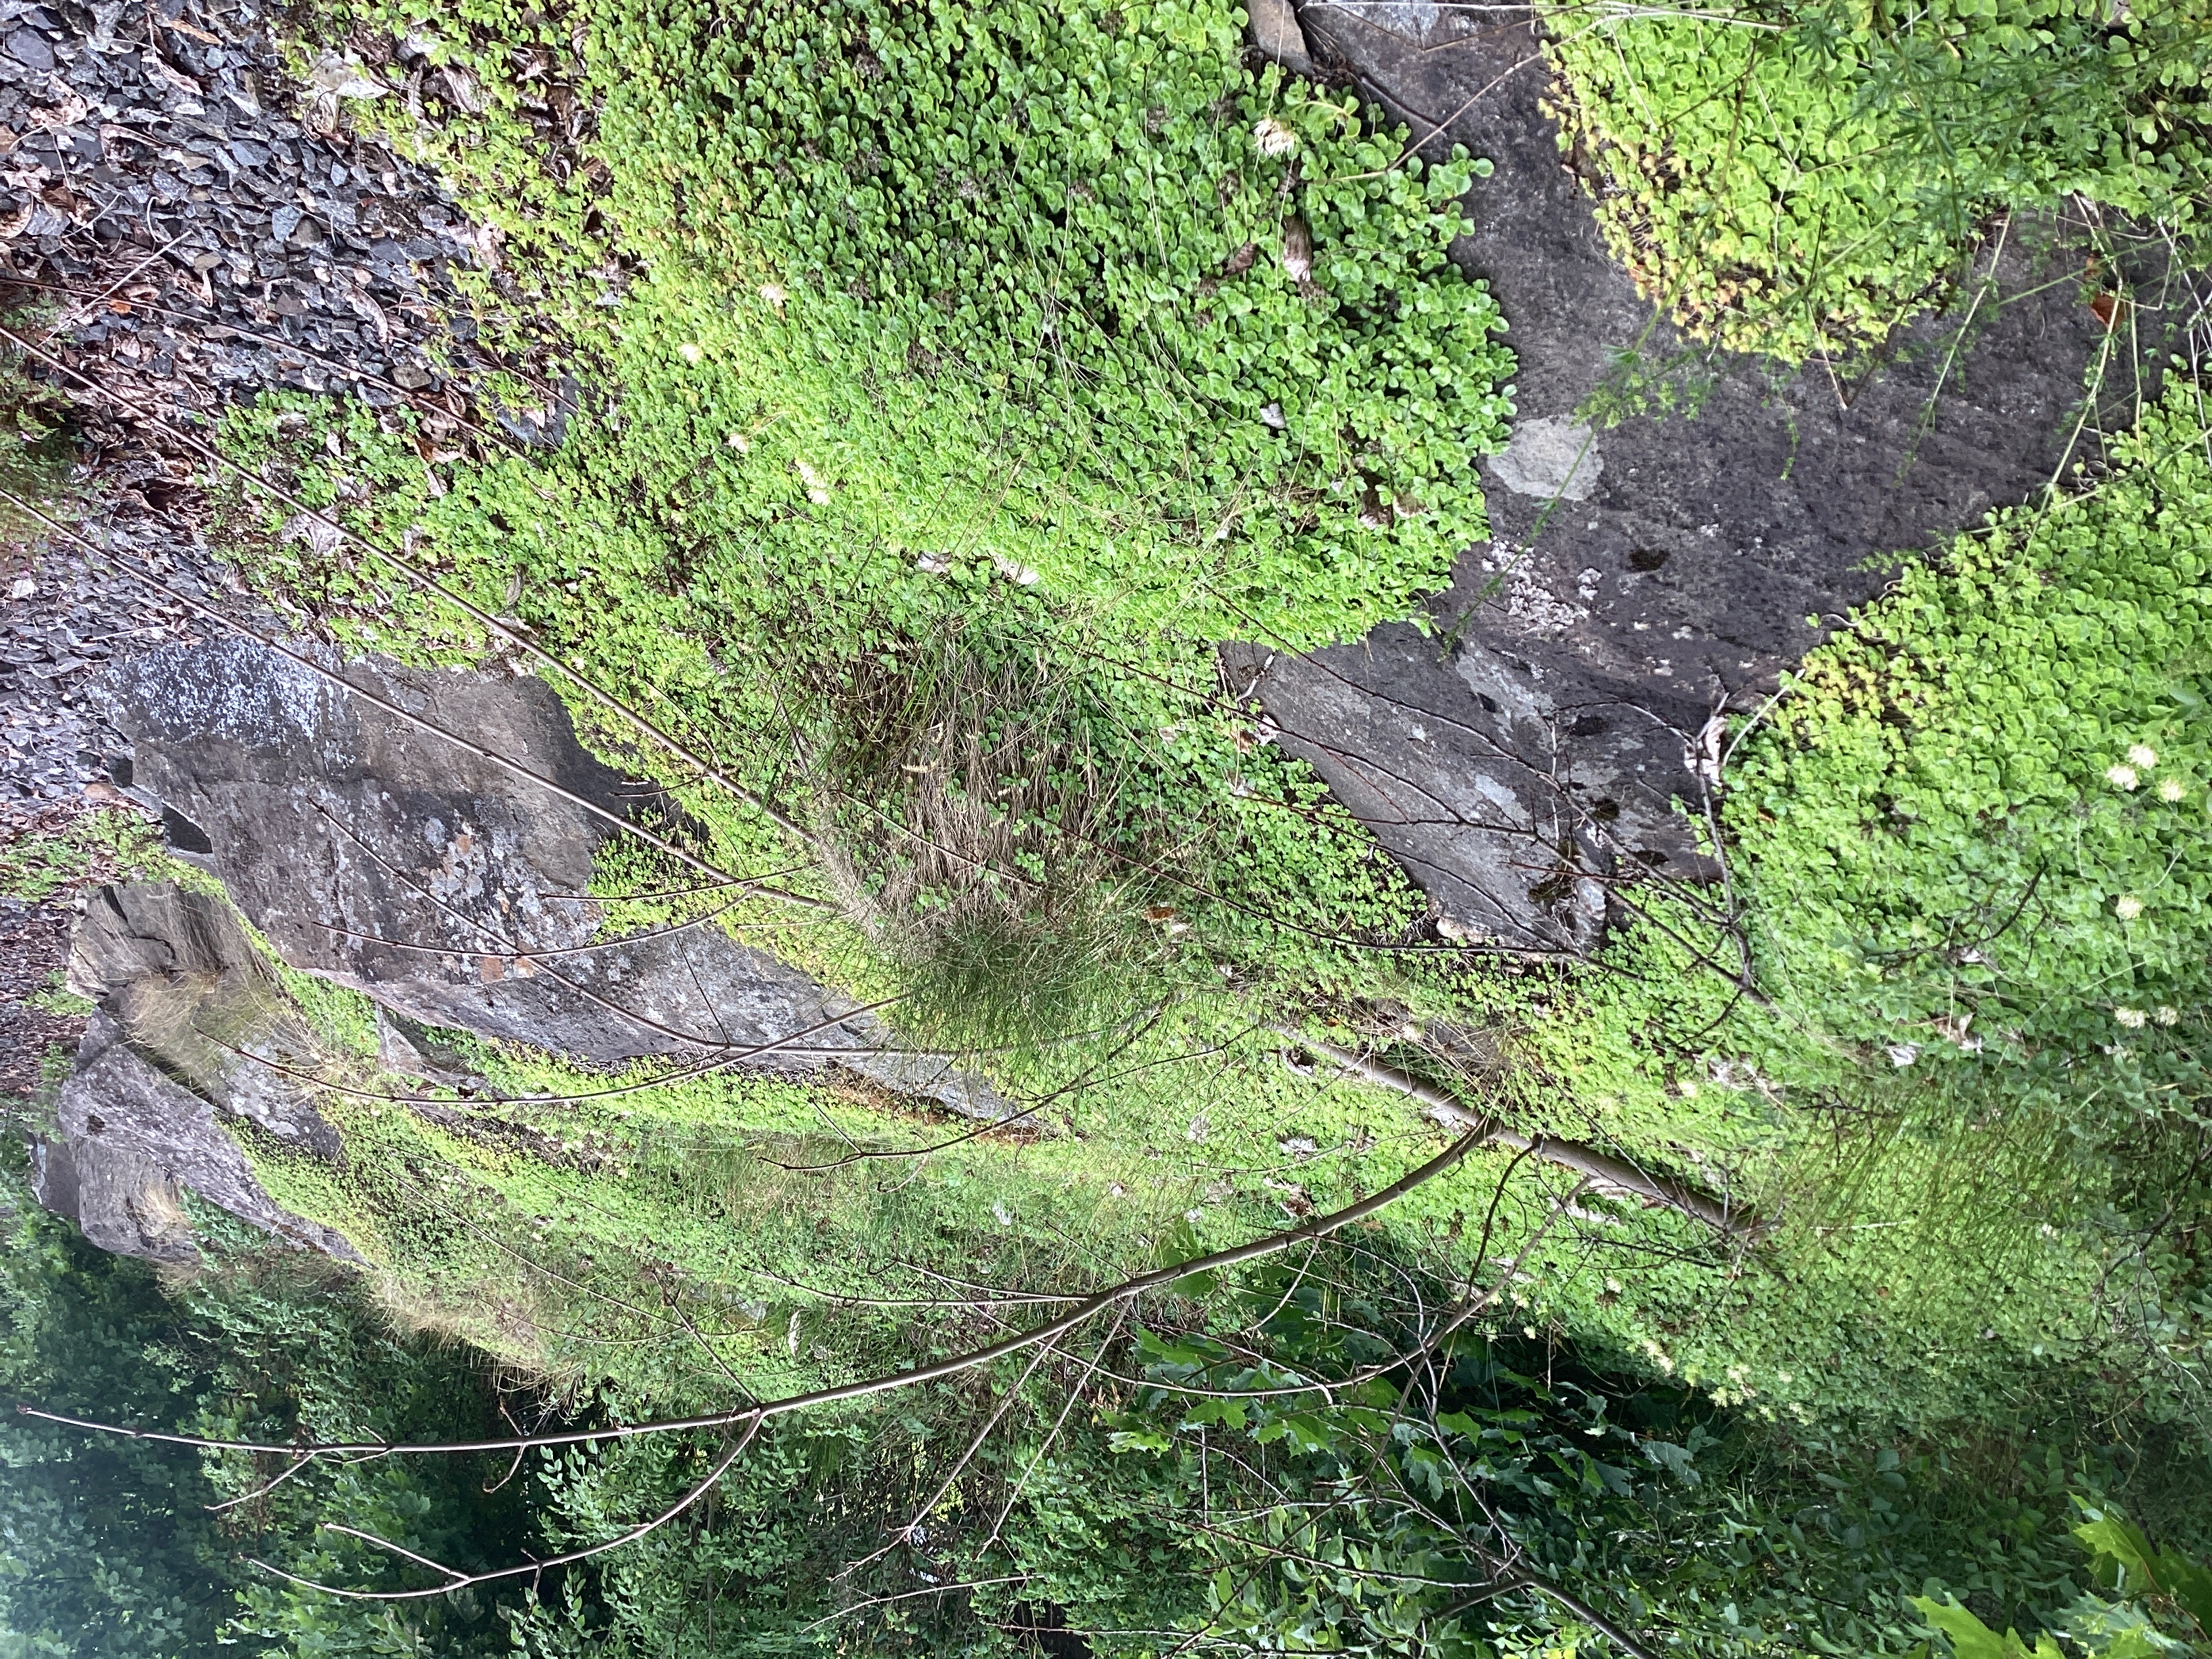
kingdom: Plantae
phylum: Tracheophyta
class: Magnoliopsida
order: Saxifragales
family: Crassulaceae
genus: Phedimus
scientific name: Phedimus spurius
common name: gravbergknapp
